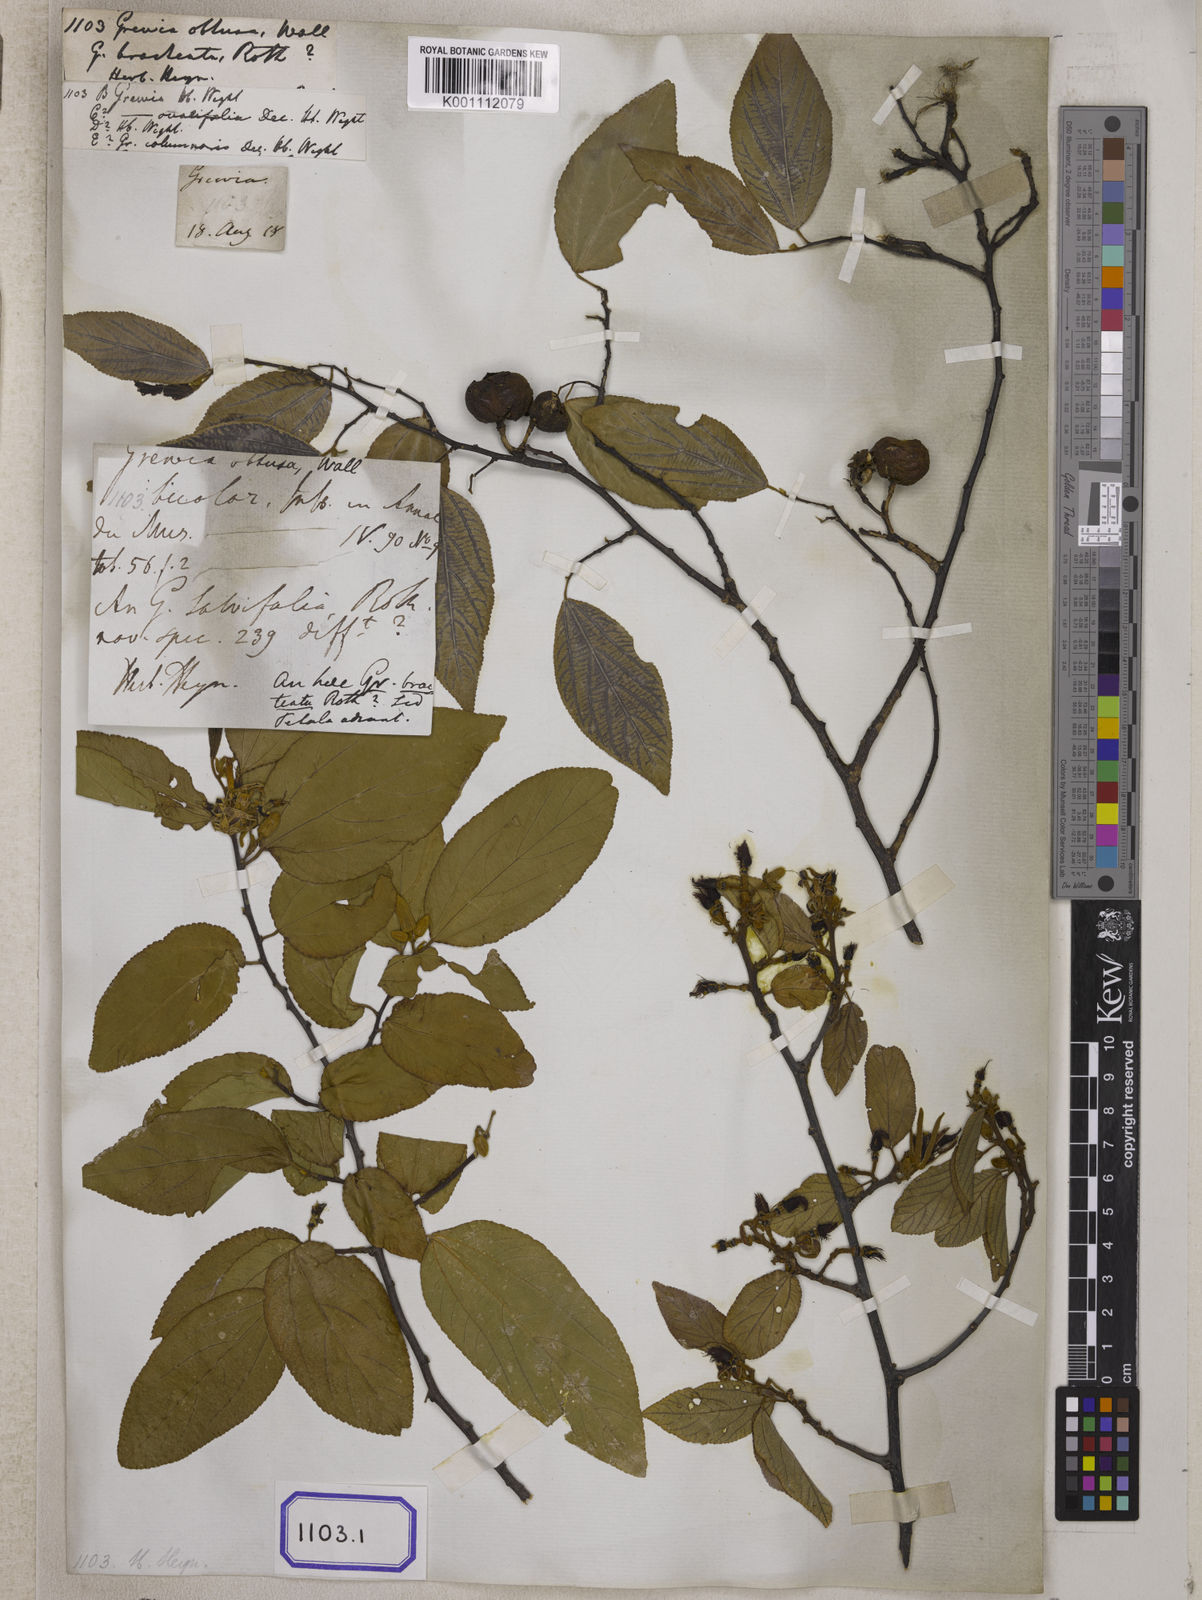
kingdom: Plantae
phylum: Tracheophyta
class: Magnoliopsida
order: Malvales
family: Malvaceae
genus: Grewia
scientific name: Grewia
